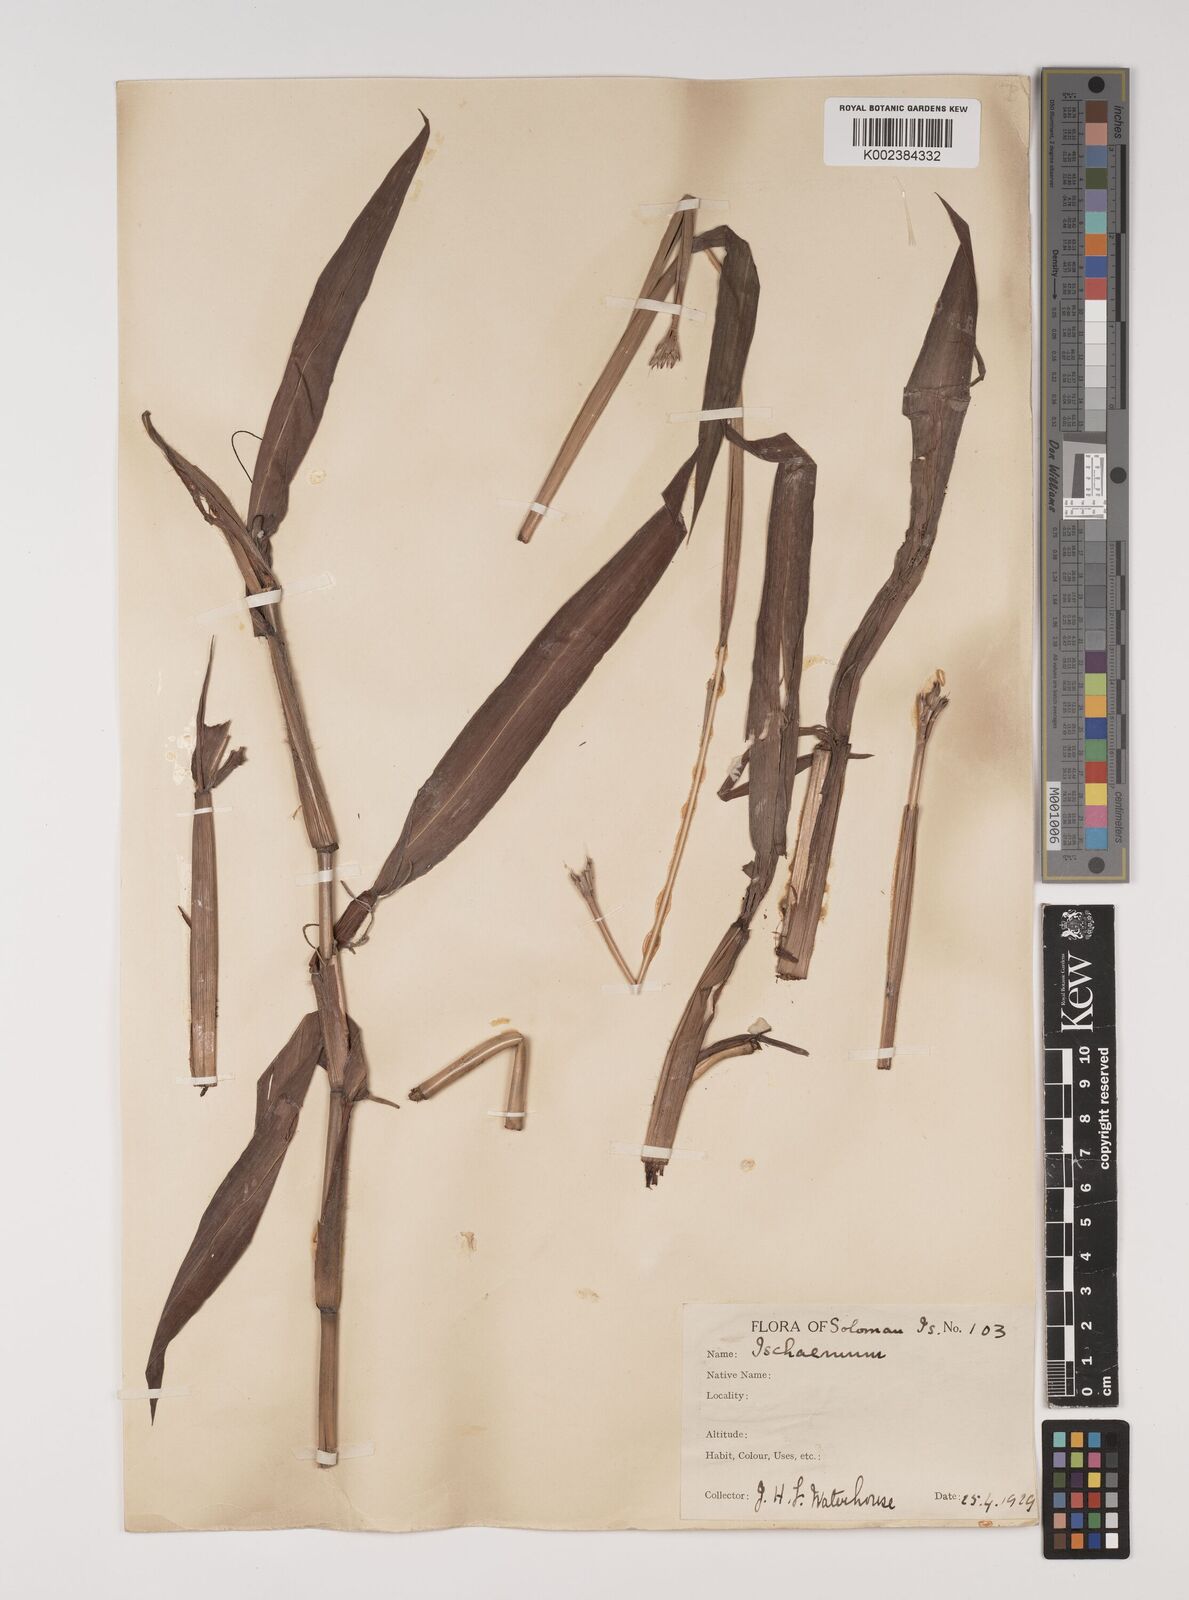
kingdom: Plantae
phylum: Tracheophyta
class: Liliopsida
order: Poales
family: Poaceae
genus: Ischaemum
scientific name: Ischaemum muticum
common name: Drought grass
